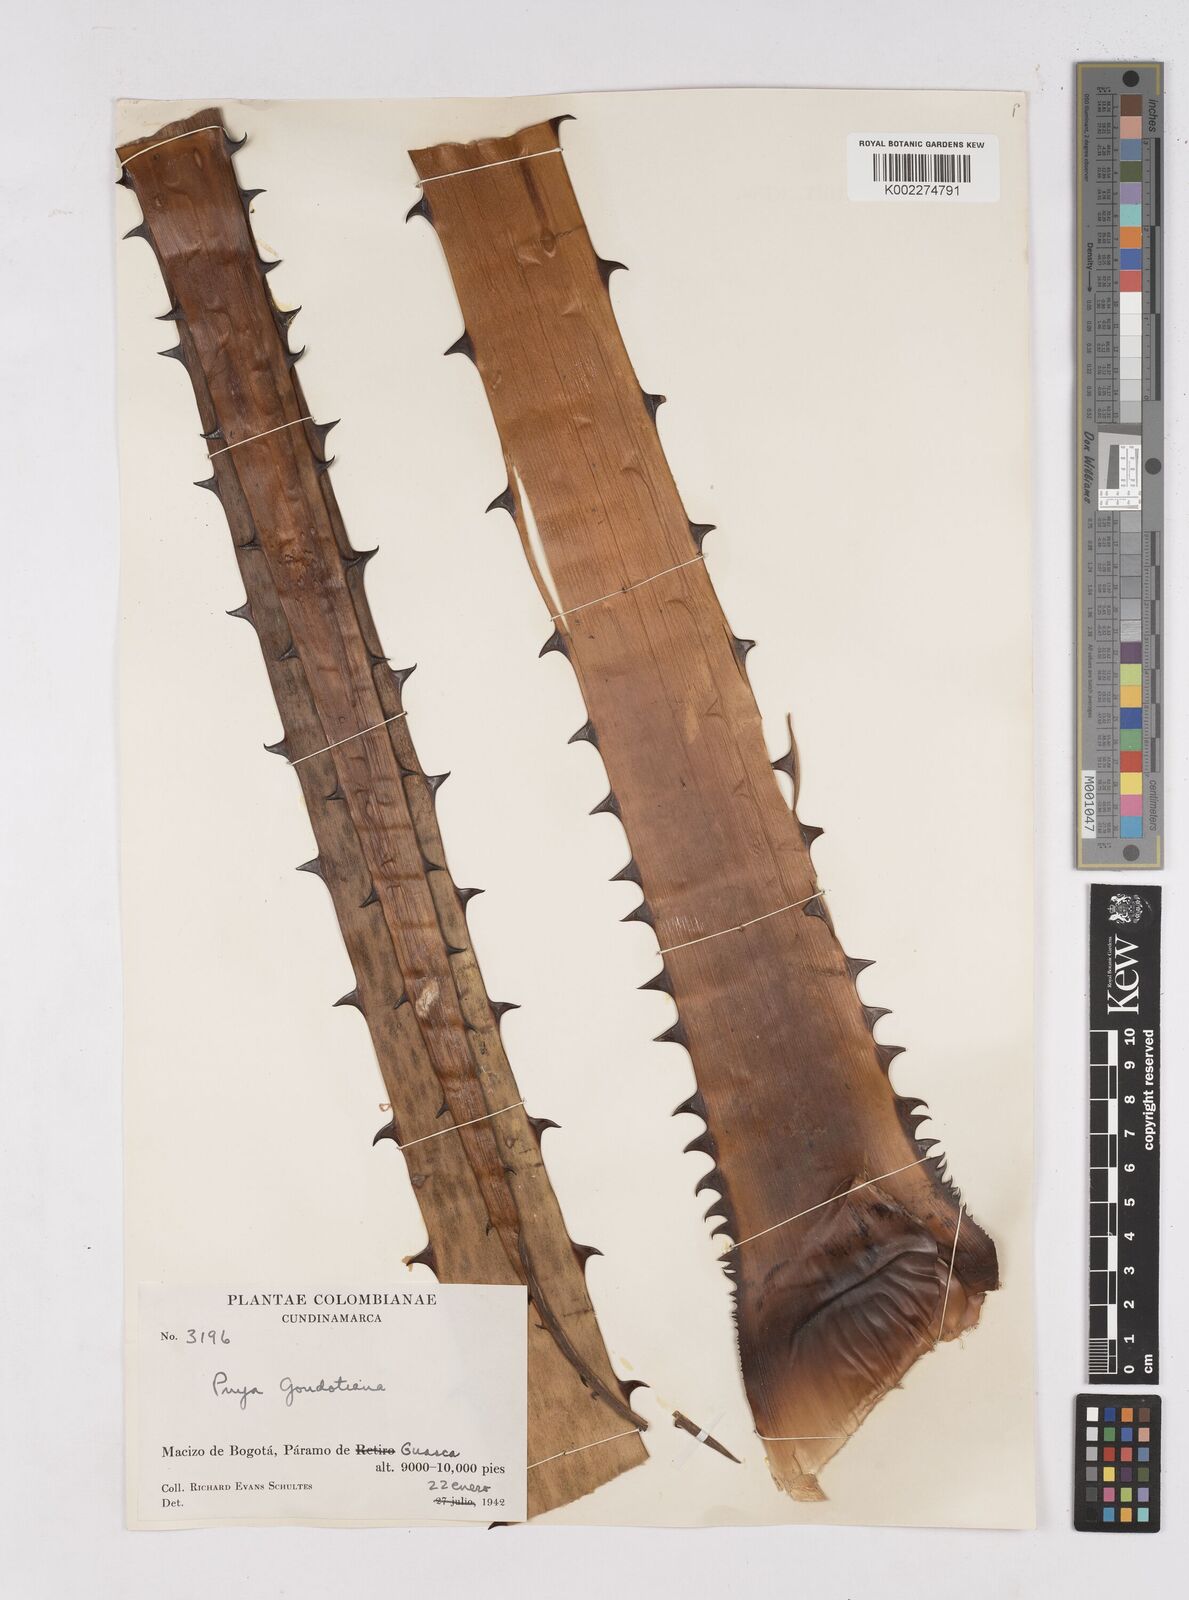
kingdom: Plantae
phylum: Tracheophyta
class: Liliopsida
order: Poales
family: Bromeliaceae
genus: Puya
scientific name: Puya goudotiana
